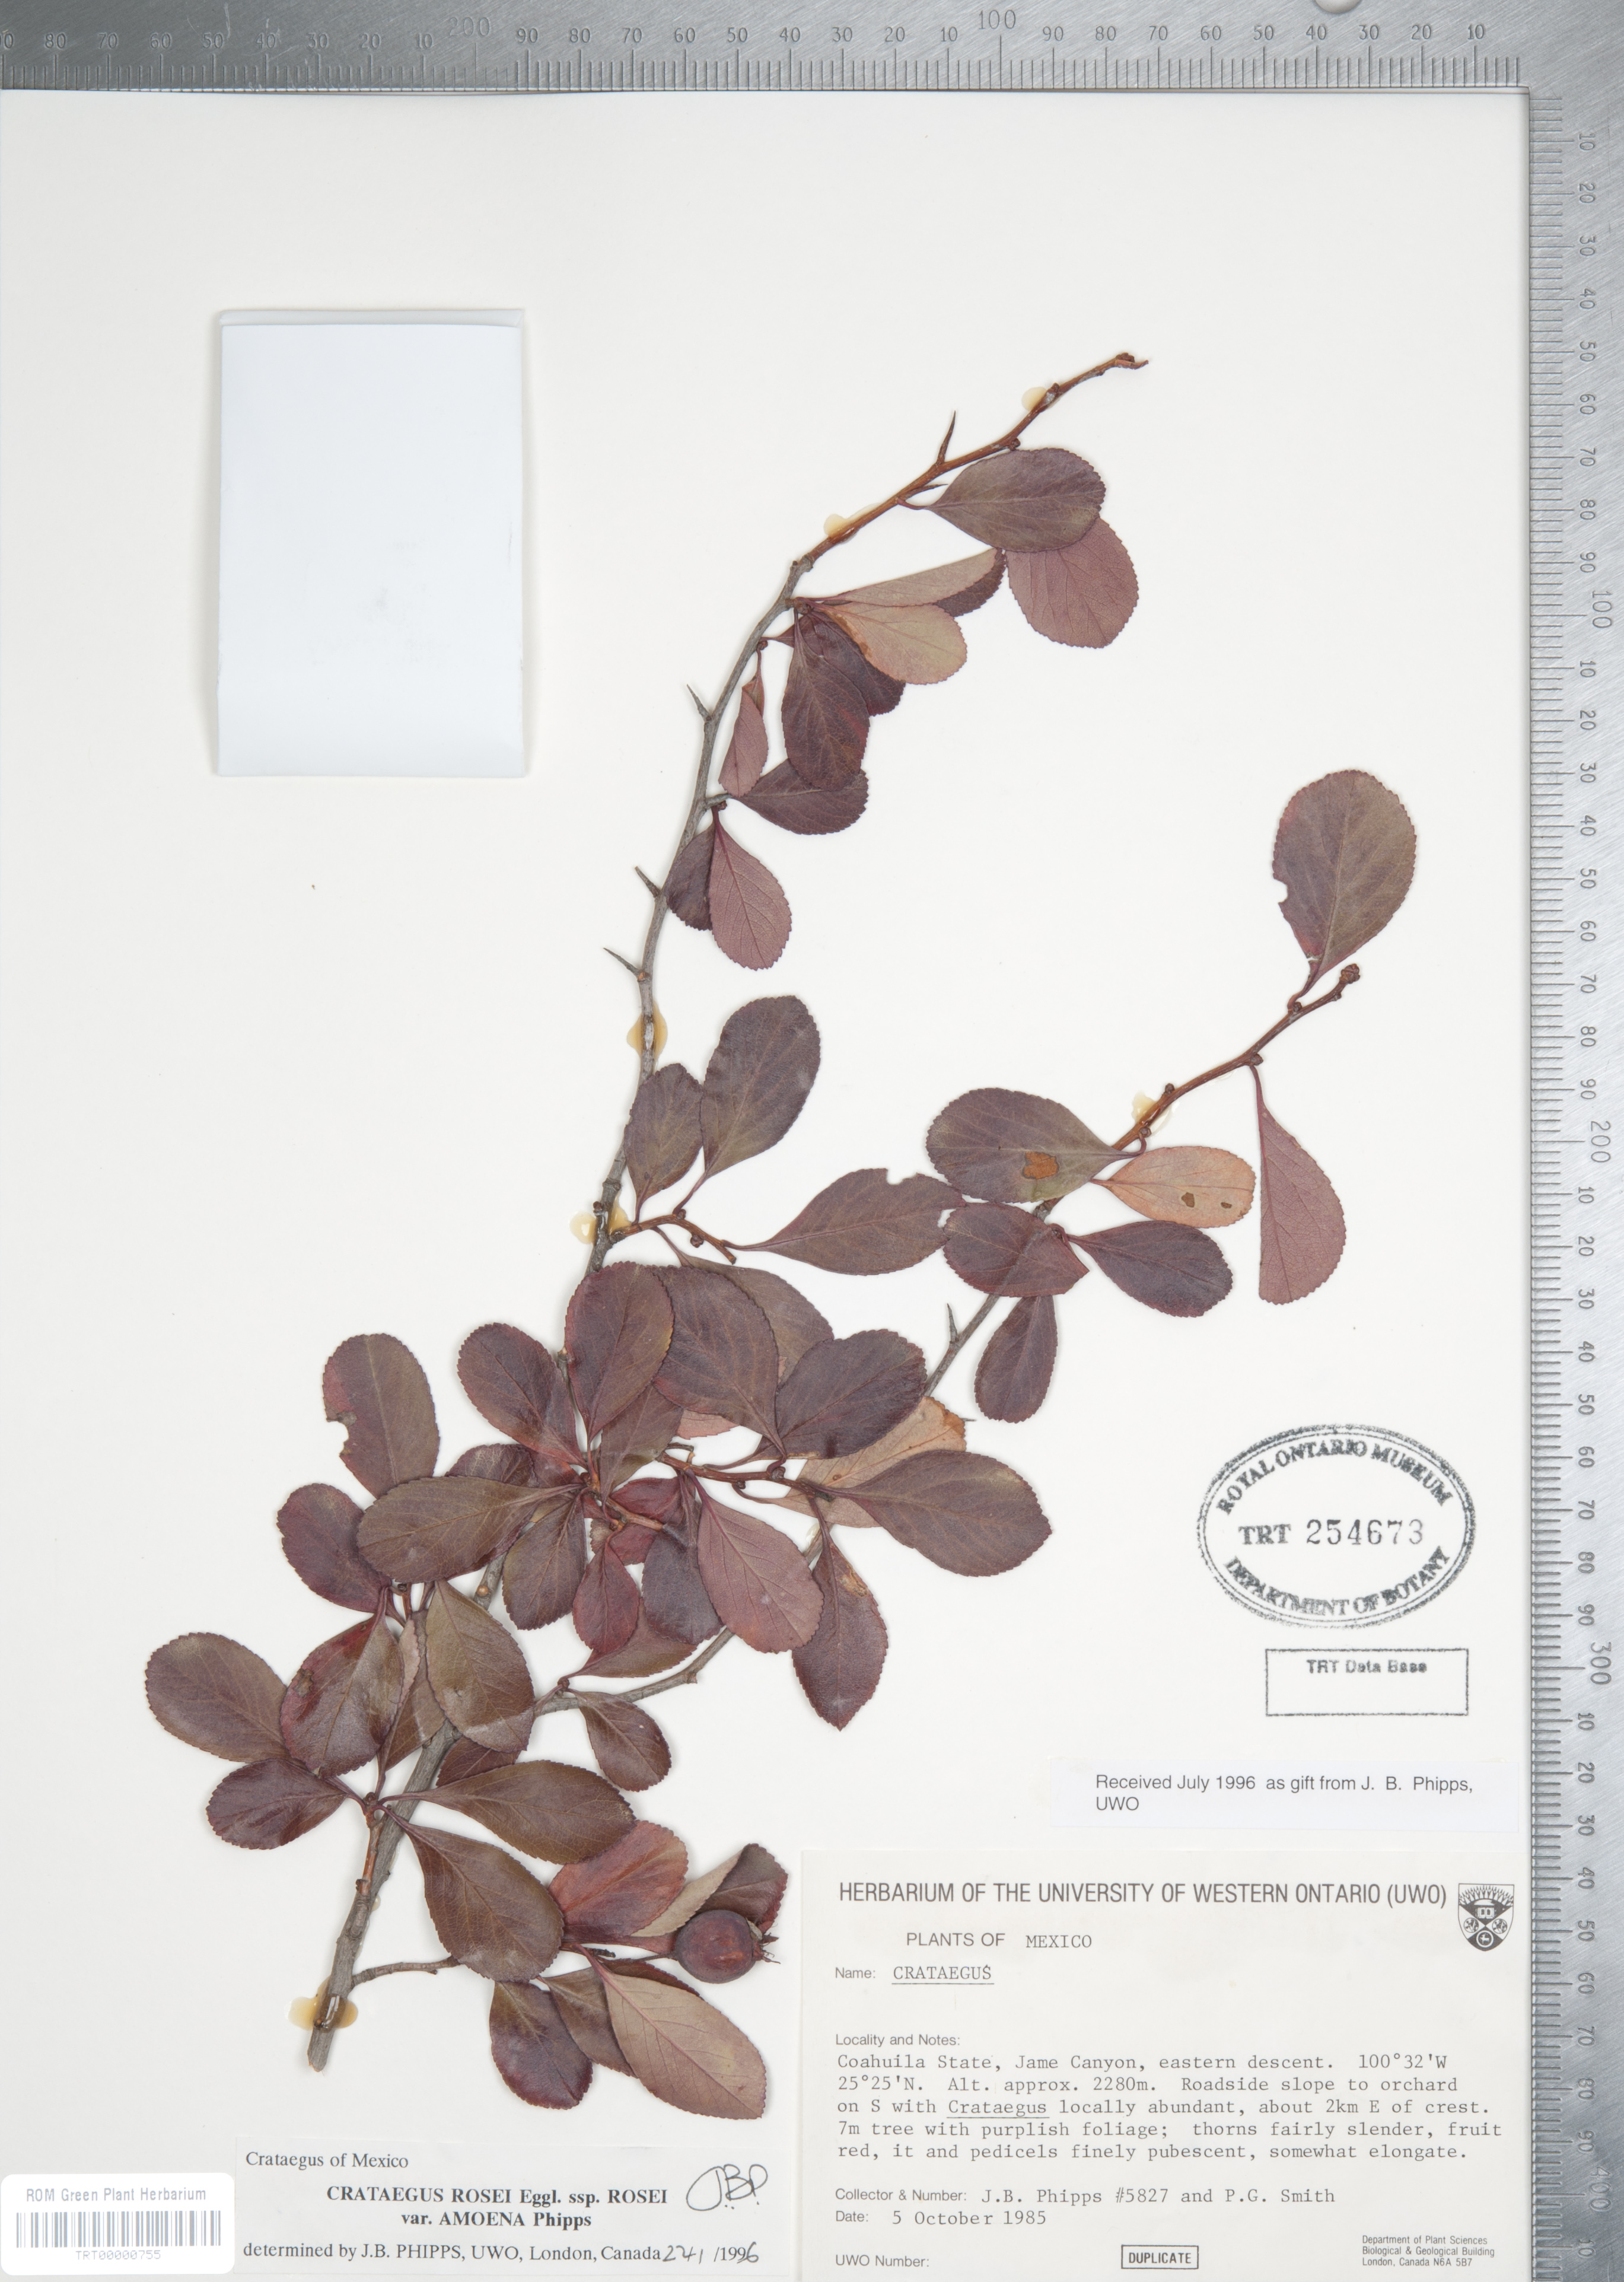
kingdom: Plantae
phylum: Tracheophyta
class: Magnoliopsida
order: Rosales
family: Rosaceae
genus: Crataegus
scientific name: Crataegus rosei
